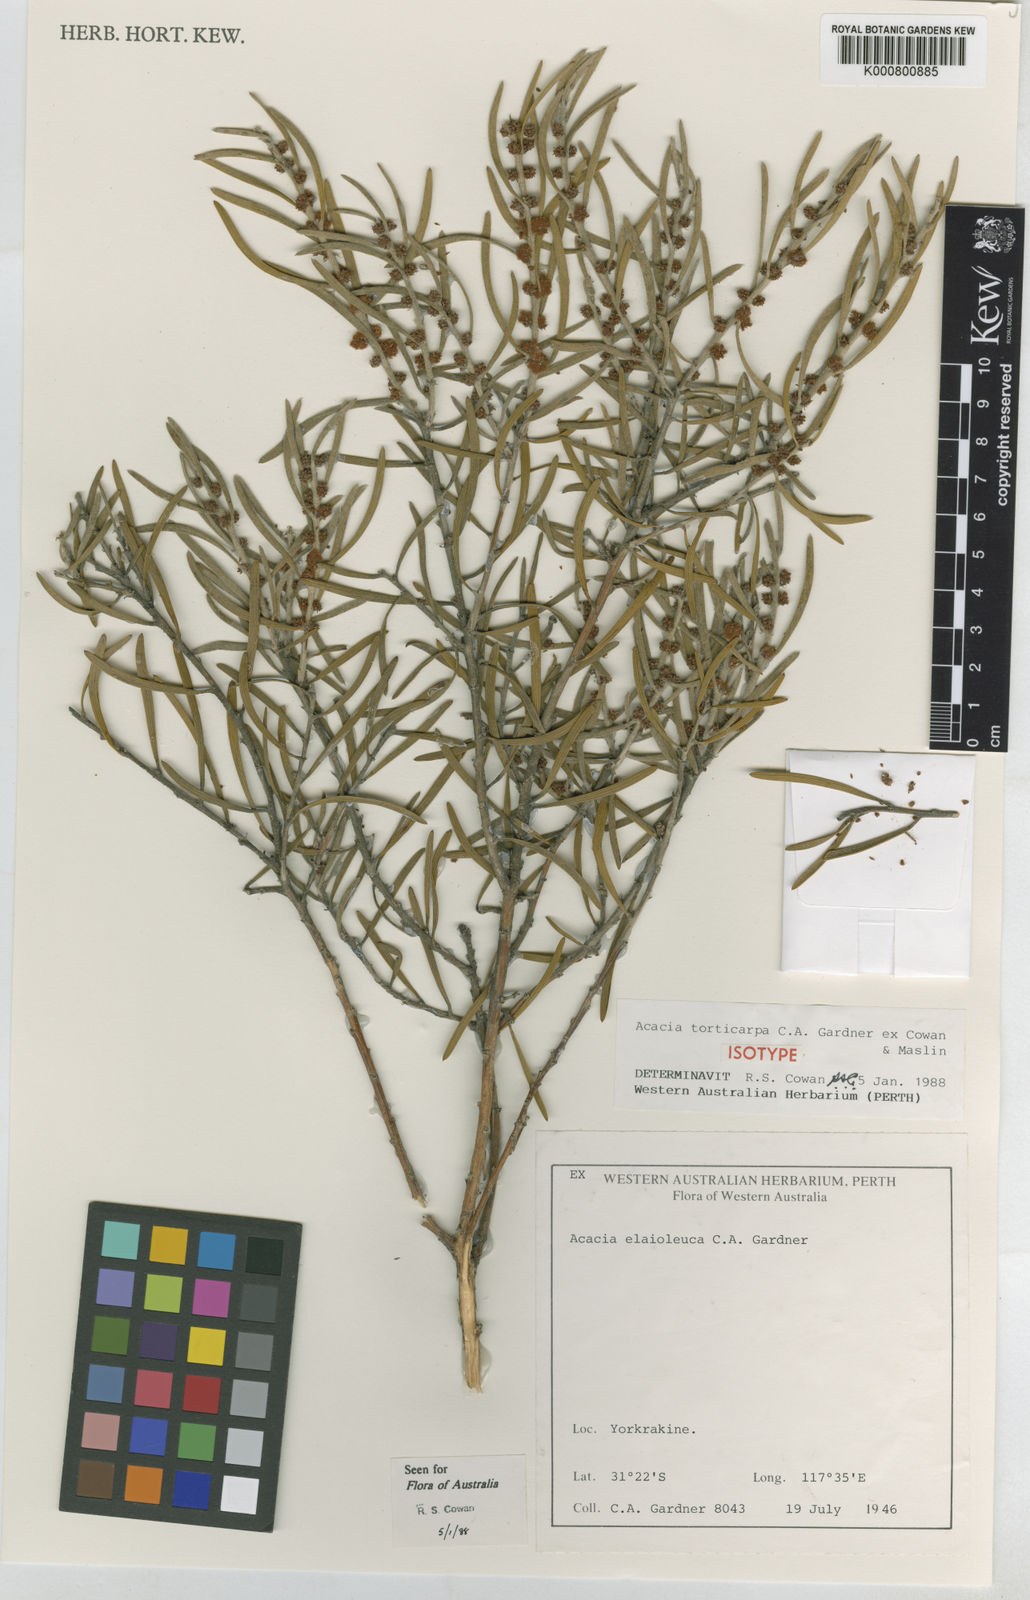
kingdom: Plantae
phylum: Tracheophyta
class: Magnoliopsida
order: Fabales
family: Fabaceae
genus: Acacia
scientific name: Acacia torticarpa
